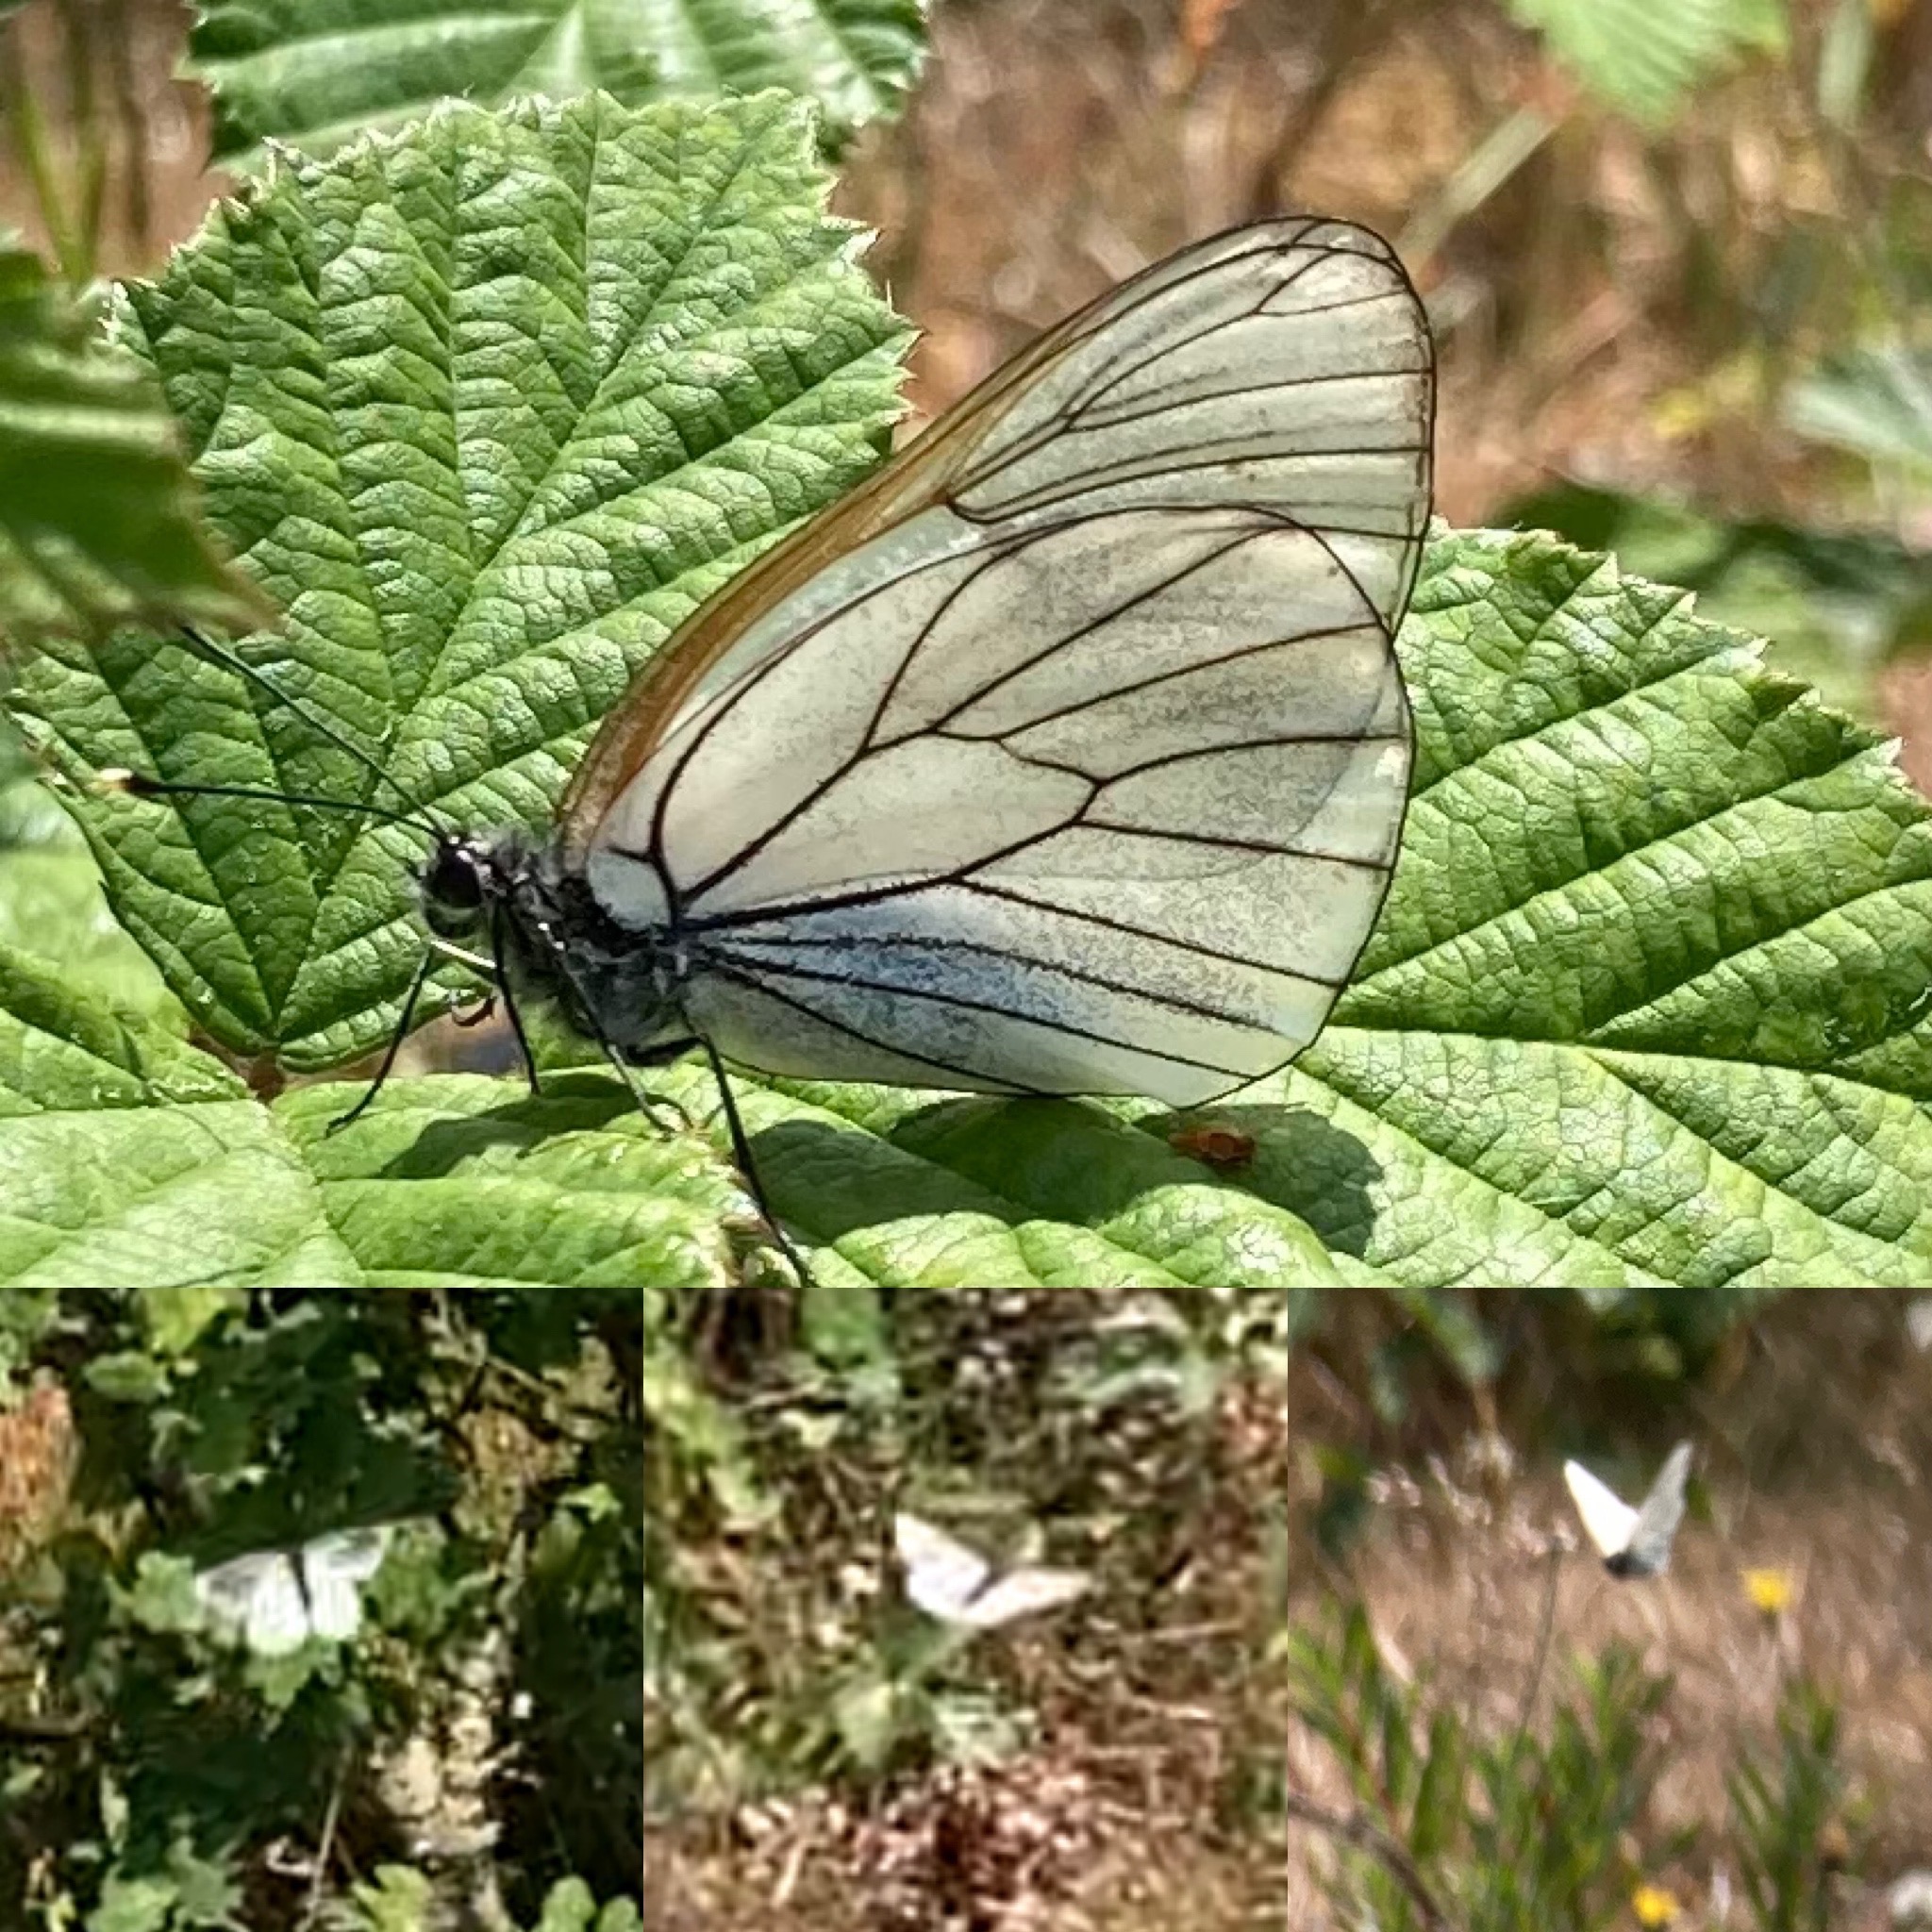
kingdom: Animalia
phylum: Arthropoda
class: Insecta
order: Lepidoptera
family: Pieridae
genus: Aporia
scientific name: Aporia crataegi
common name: Sortåret hvidvinge
